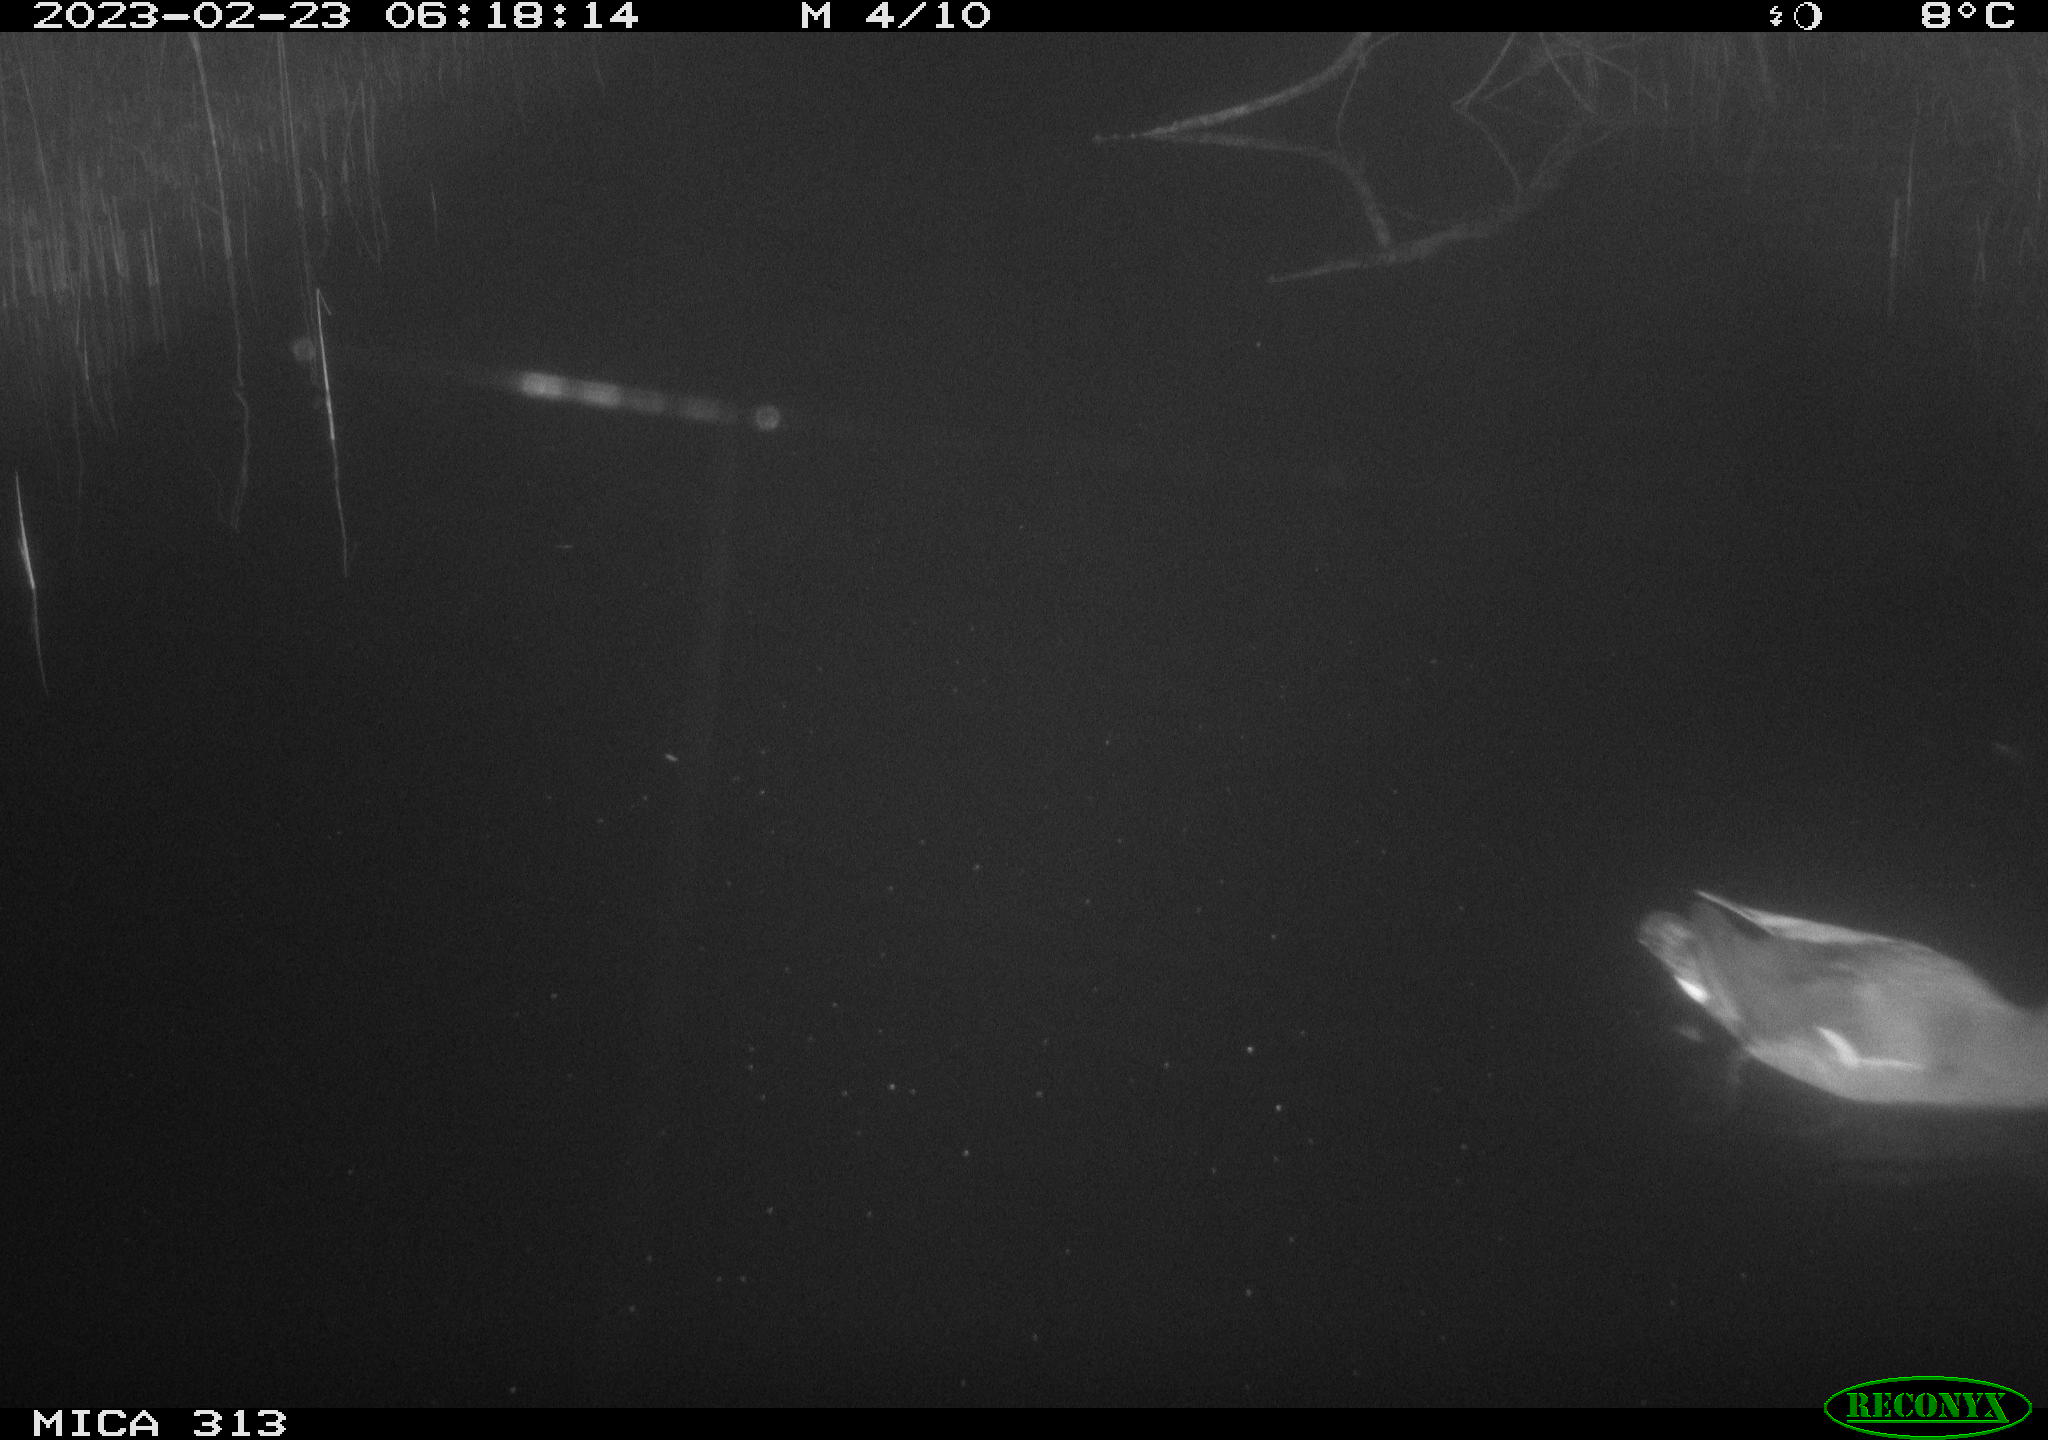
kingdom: Animalia
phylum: Chordata
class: Aves
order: Gruiformes
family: Rallidae
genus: Gallinula
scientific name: Gallinula chloropus
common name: Common moorhen
